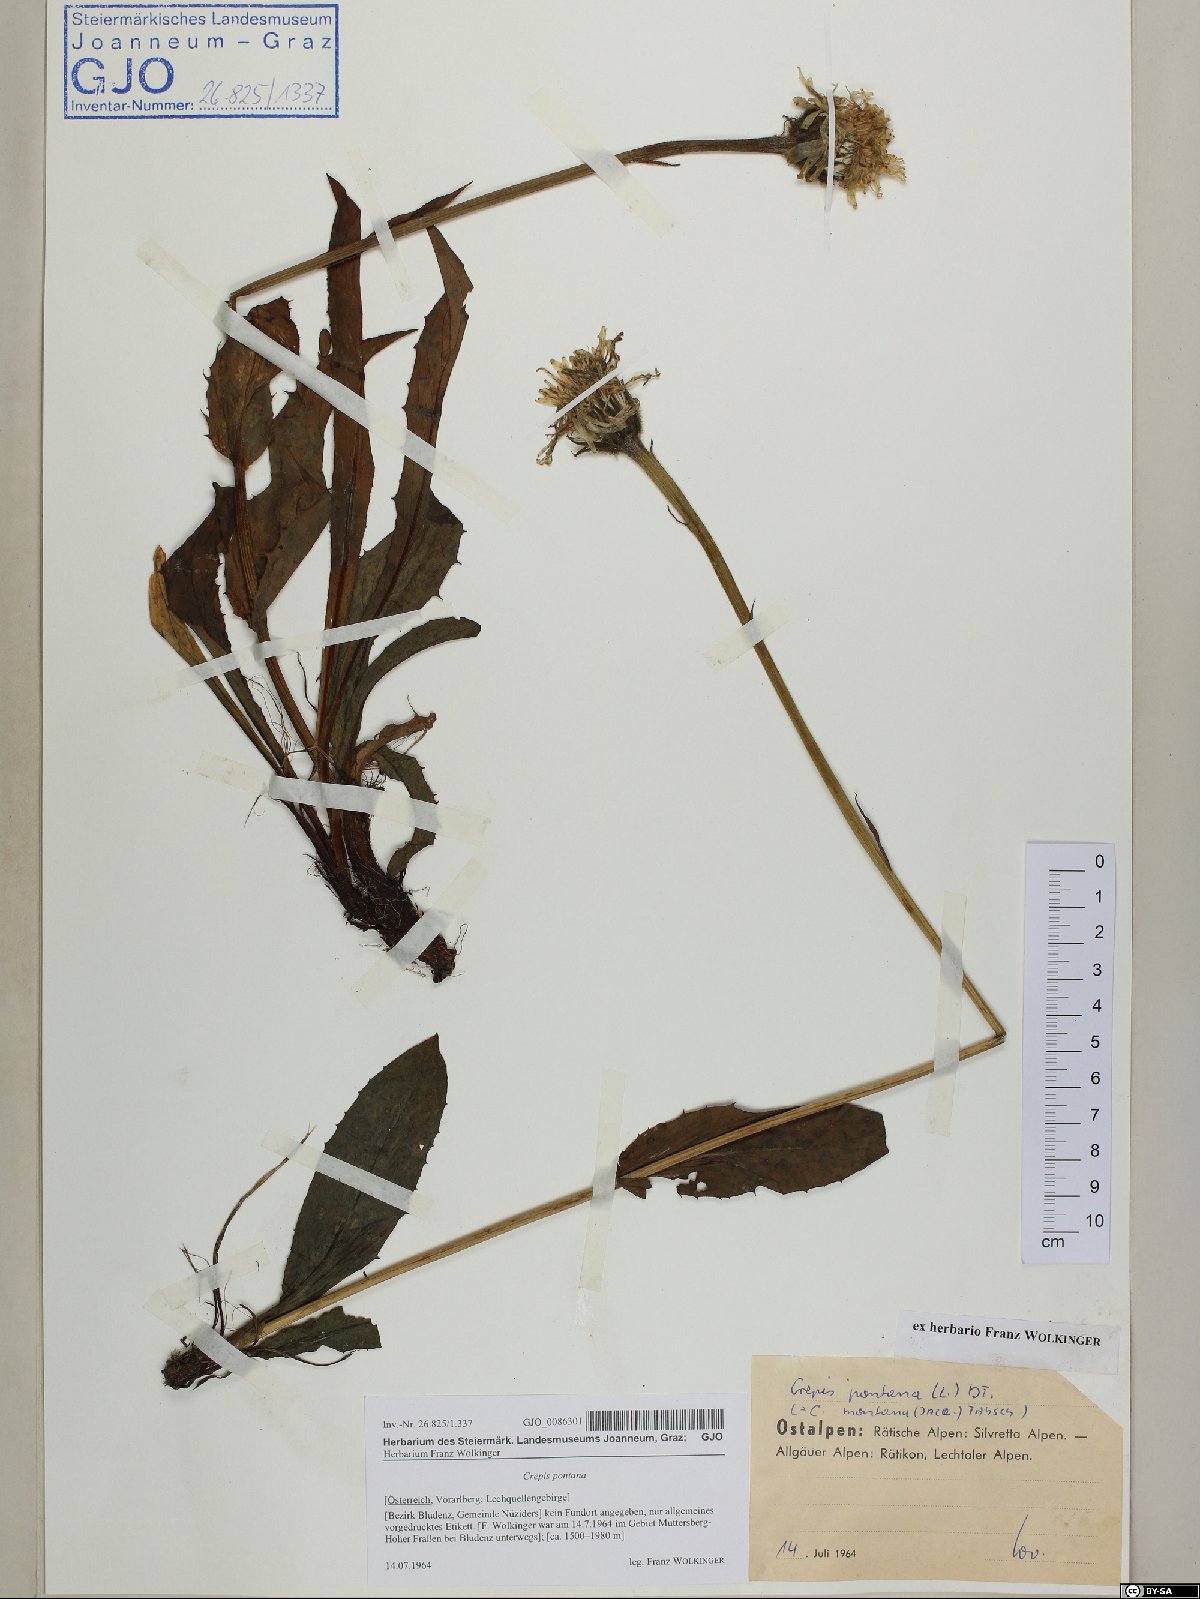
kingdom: Plantae
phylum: Tracheophyta
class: Magnoliopsida
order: Asterales
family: Asteraceae
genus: Crepis
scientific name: Crepis pontana
